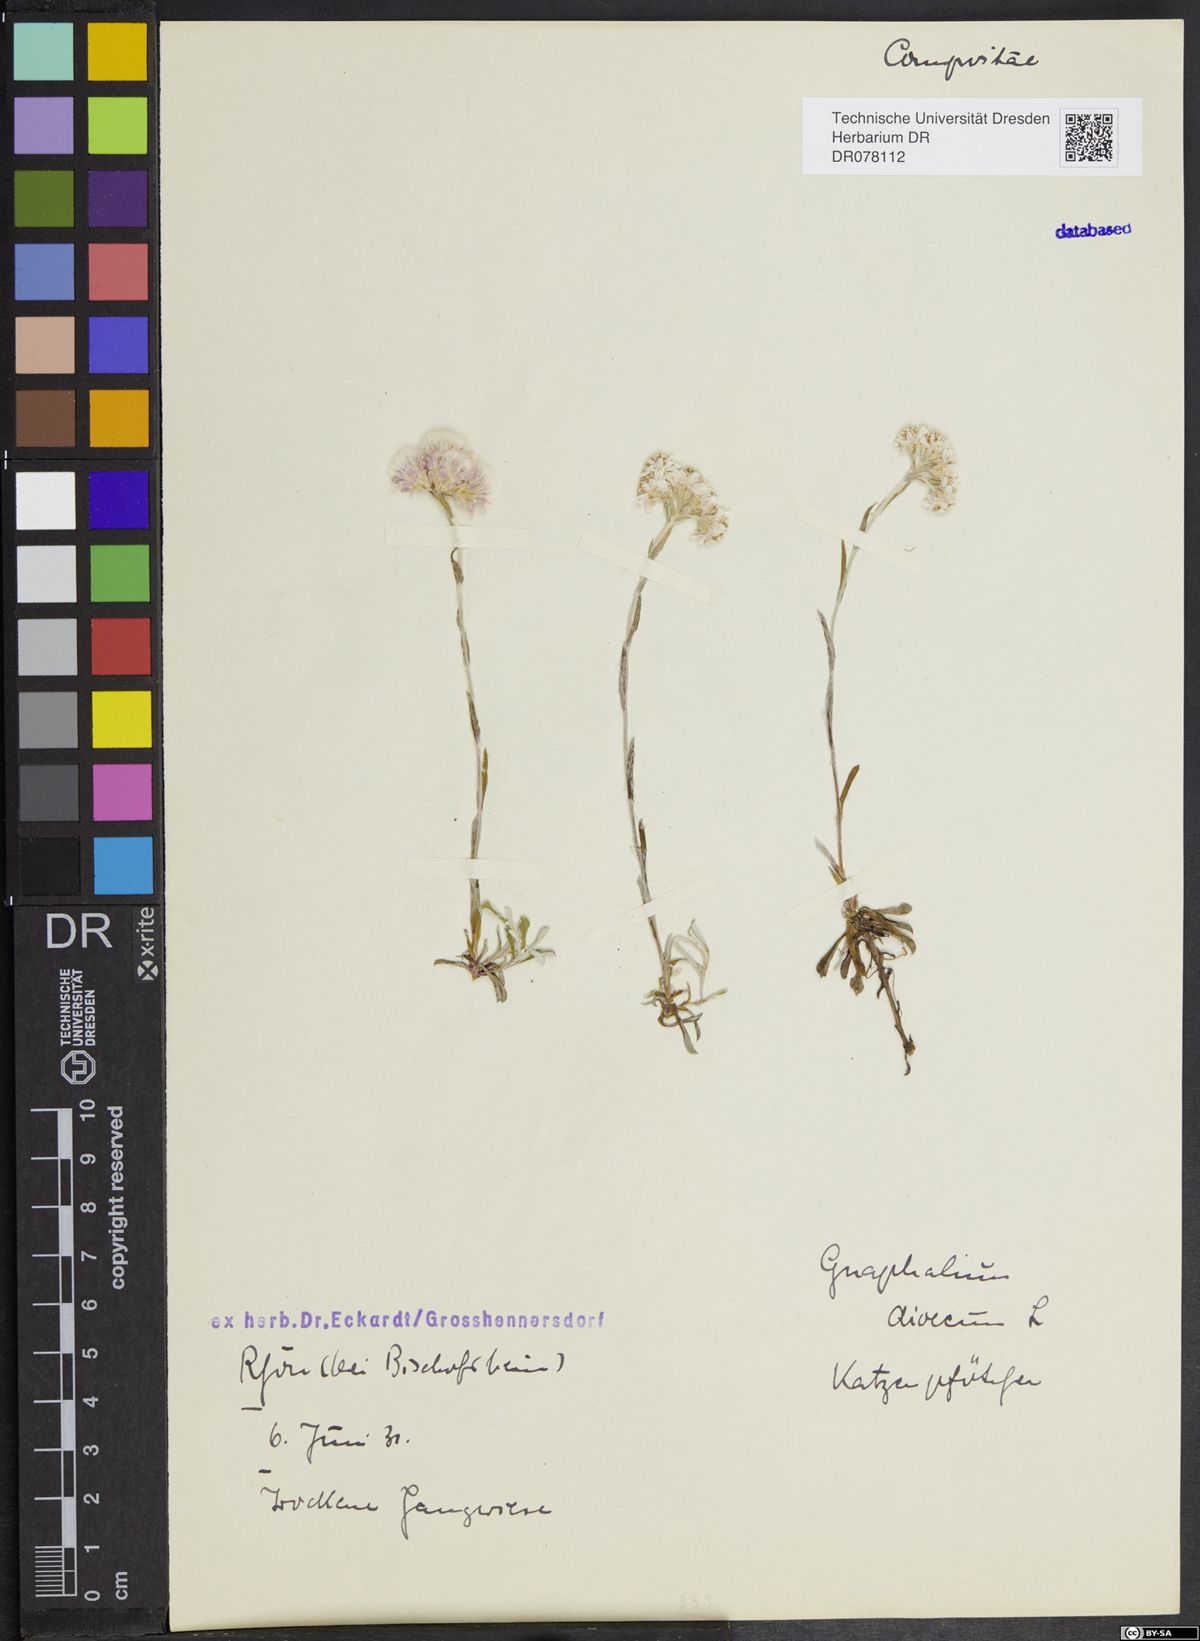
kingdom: Plantae
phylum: Tracheophyta
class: Magnoliopsida
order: Asterales
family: Asteraceae
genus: Antennaria
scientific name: Antennaria dioica
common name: Mountain everlasting
